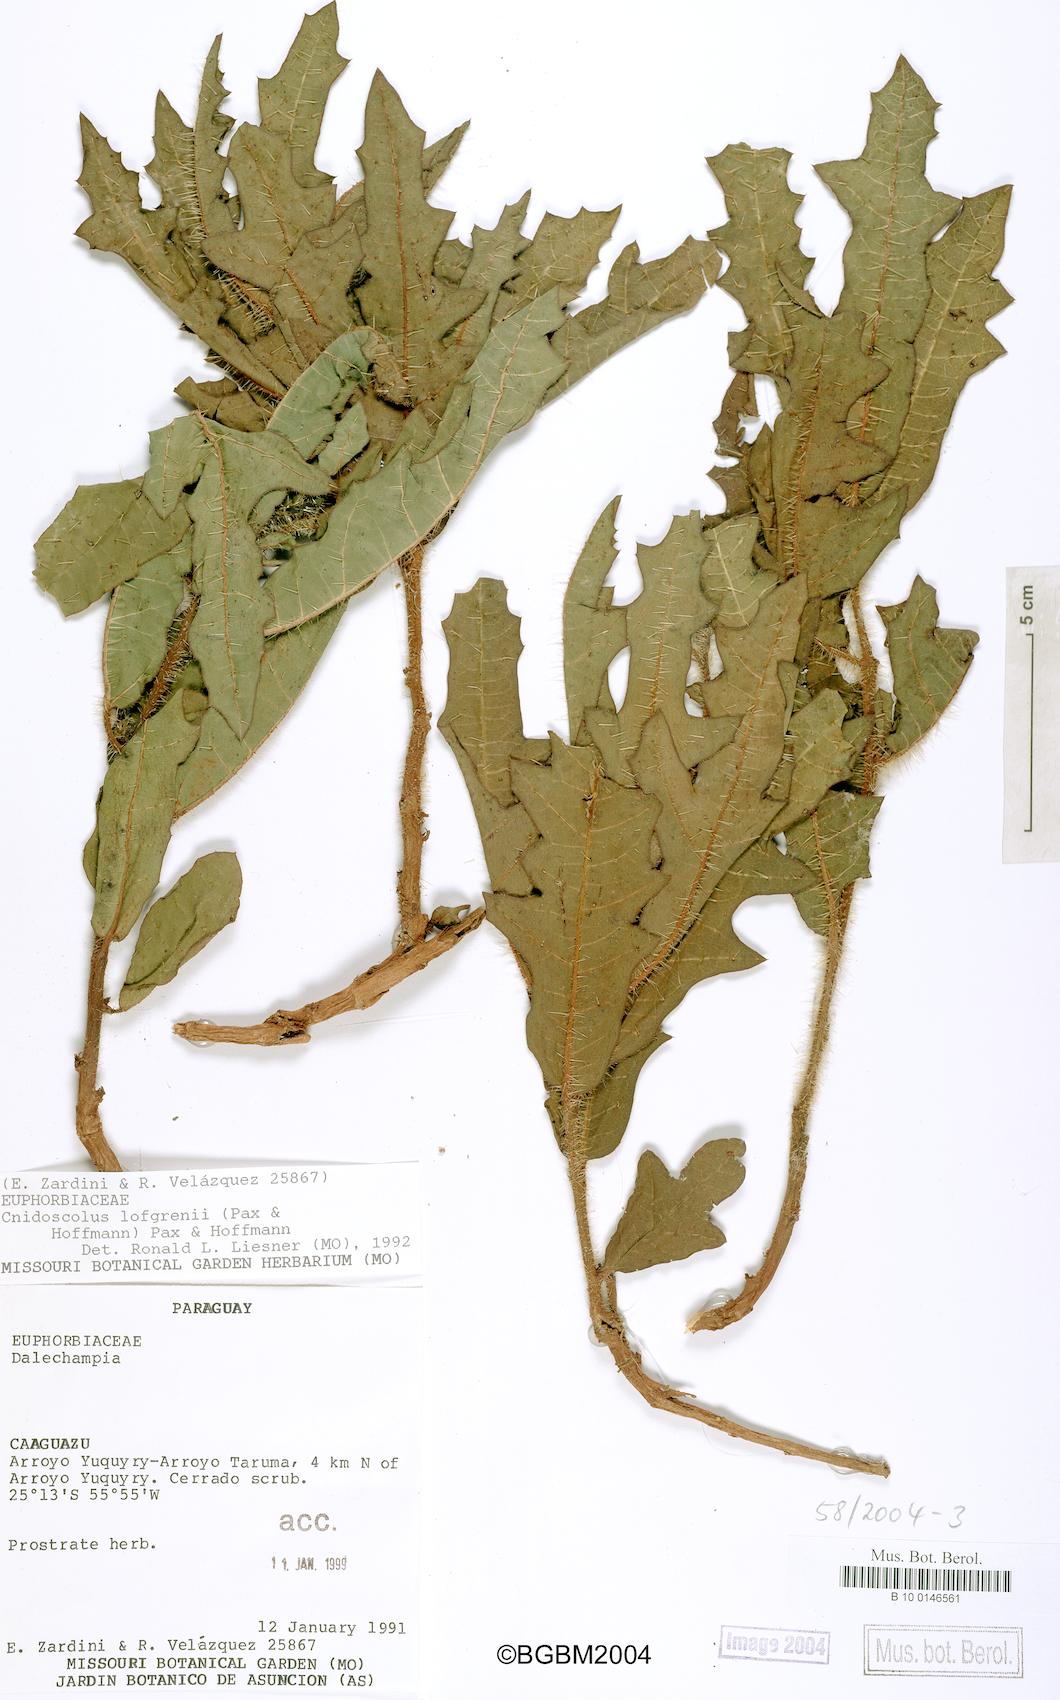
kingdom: Plantae
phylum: Tracheophyta
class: Magnoliopsida
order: Malpighiales
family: Euphorbiaceae
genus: Cnidoscolus
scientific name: Cnidoscolus
